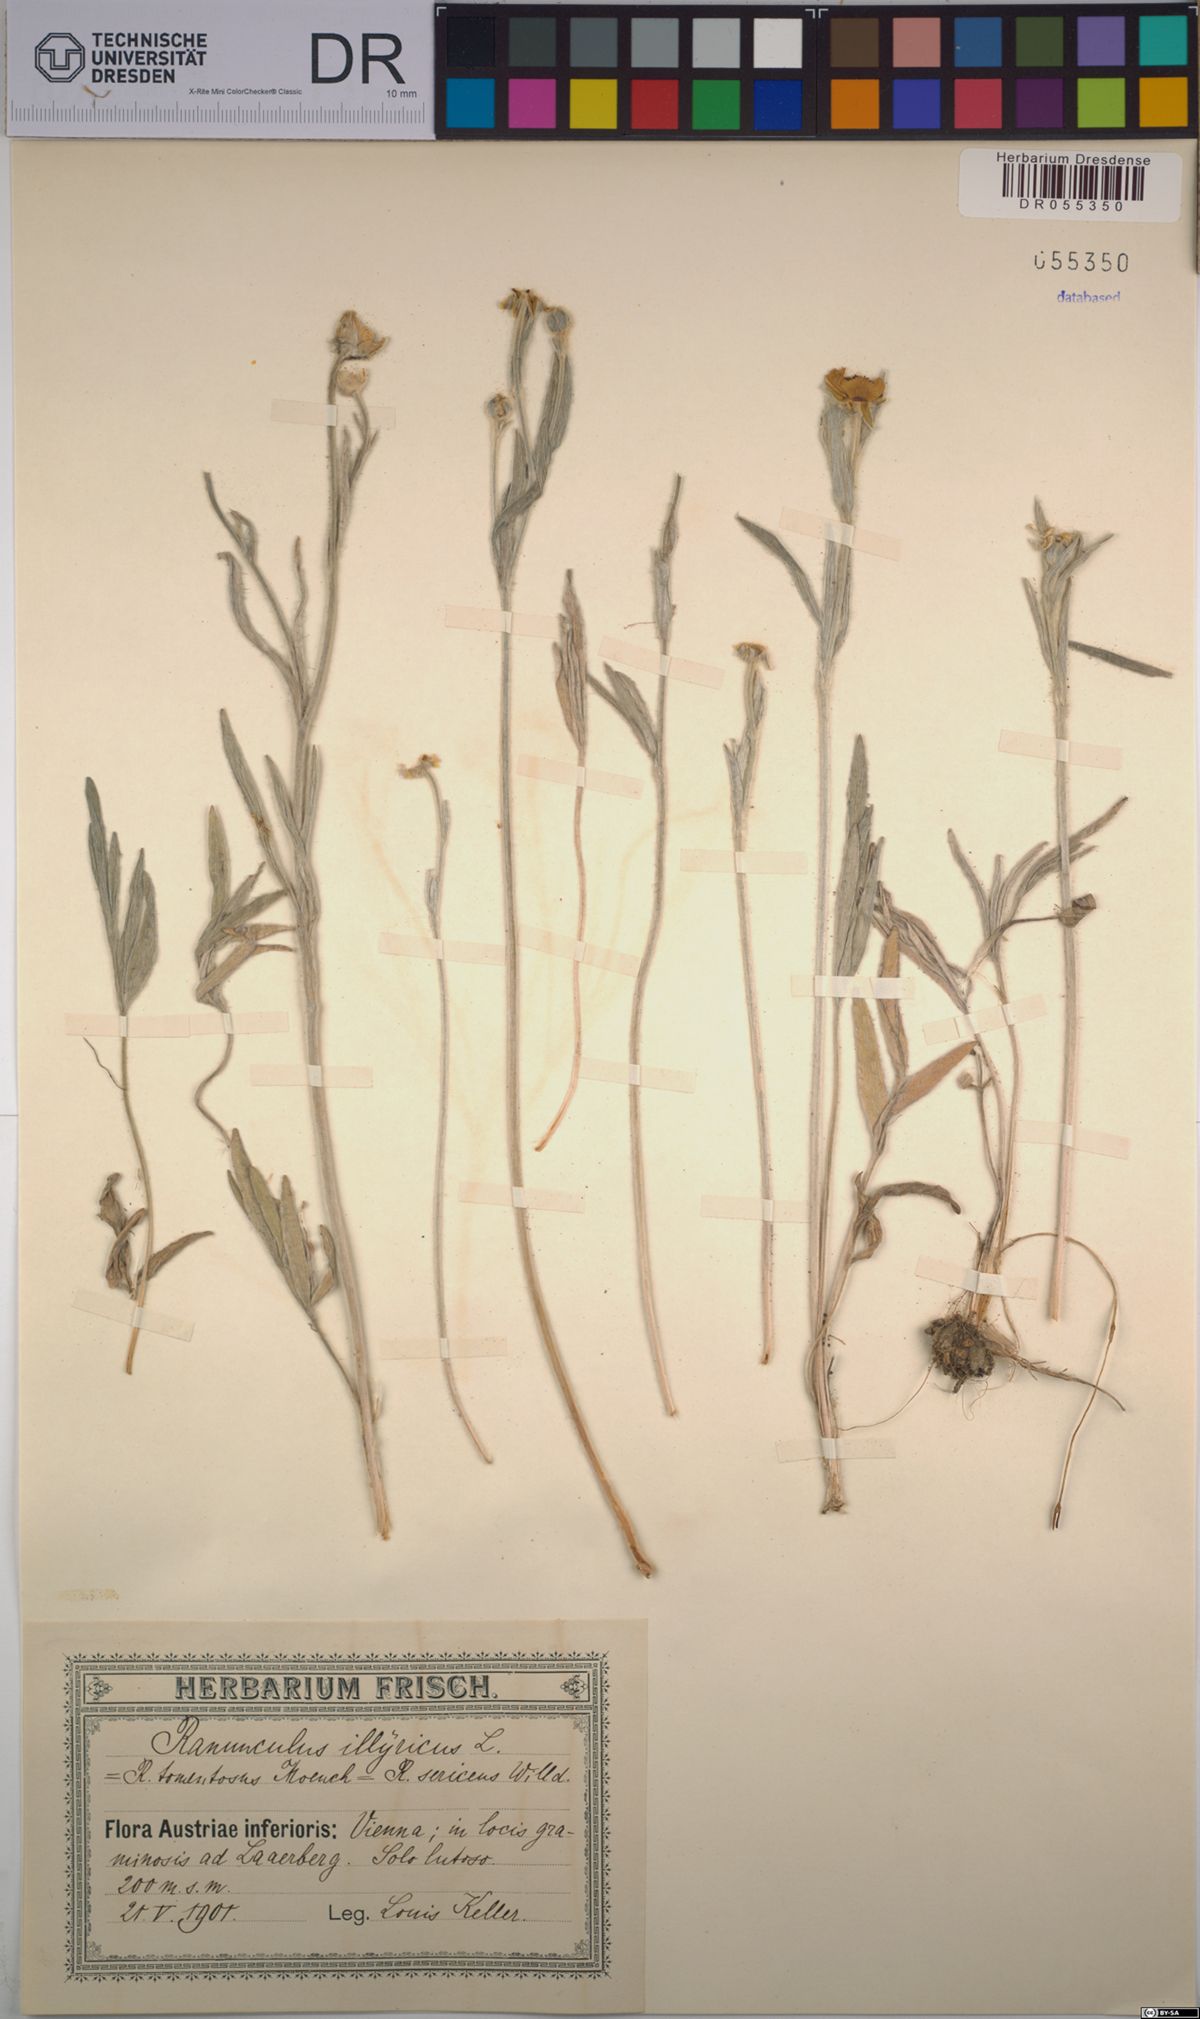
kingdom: Plantae
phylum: Tracheophyta
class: Magnoliopsida
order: Ranunculales
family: Ranunculaceae
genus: Ranunculus
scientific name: Ranunculus illyricus
